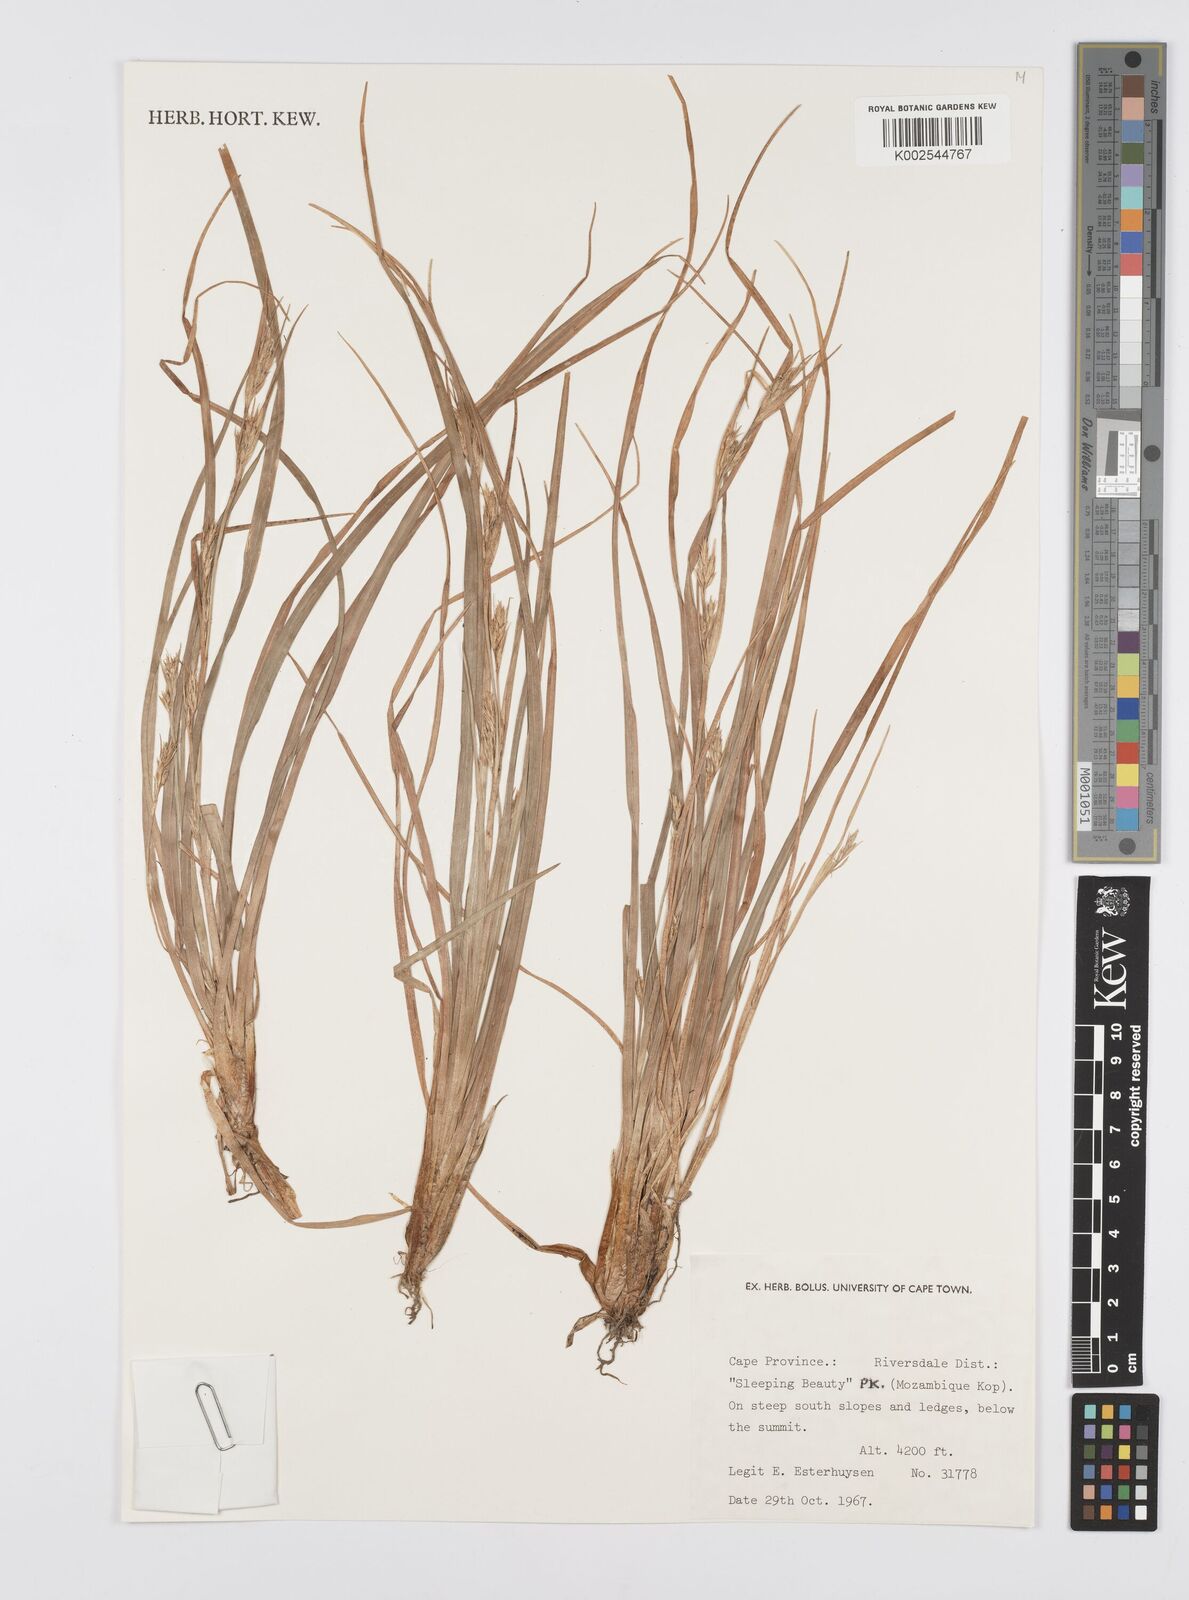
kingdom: Plantae
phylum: Tracheophyta
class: Liliopsida
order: Poales
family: Cyperaceae
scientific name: Cyperaceae
